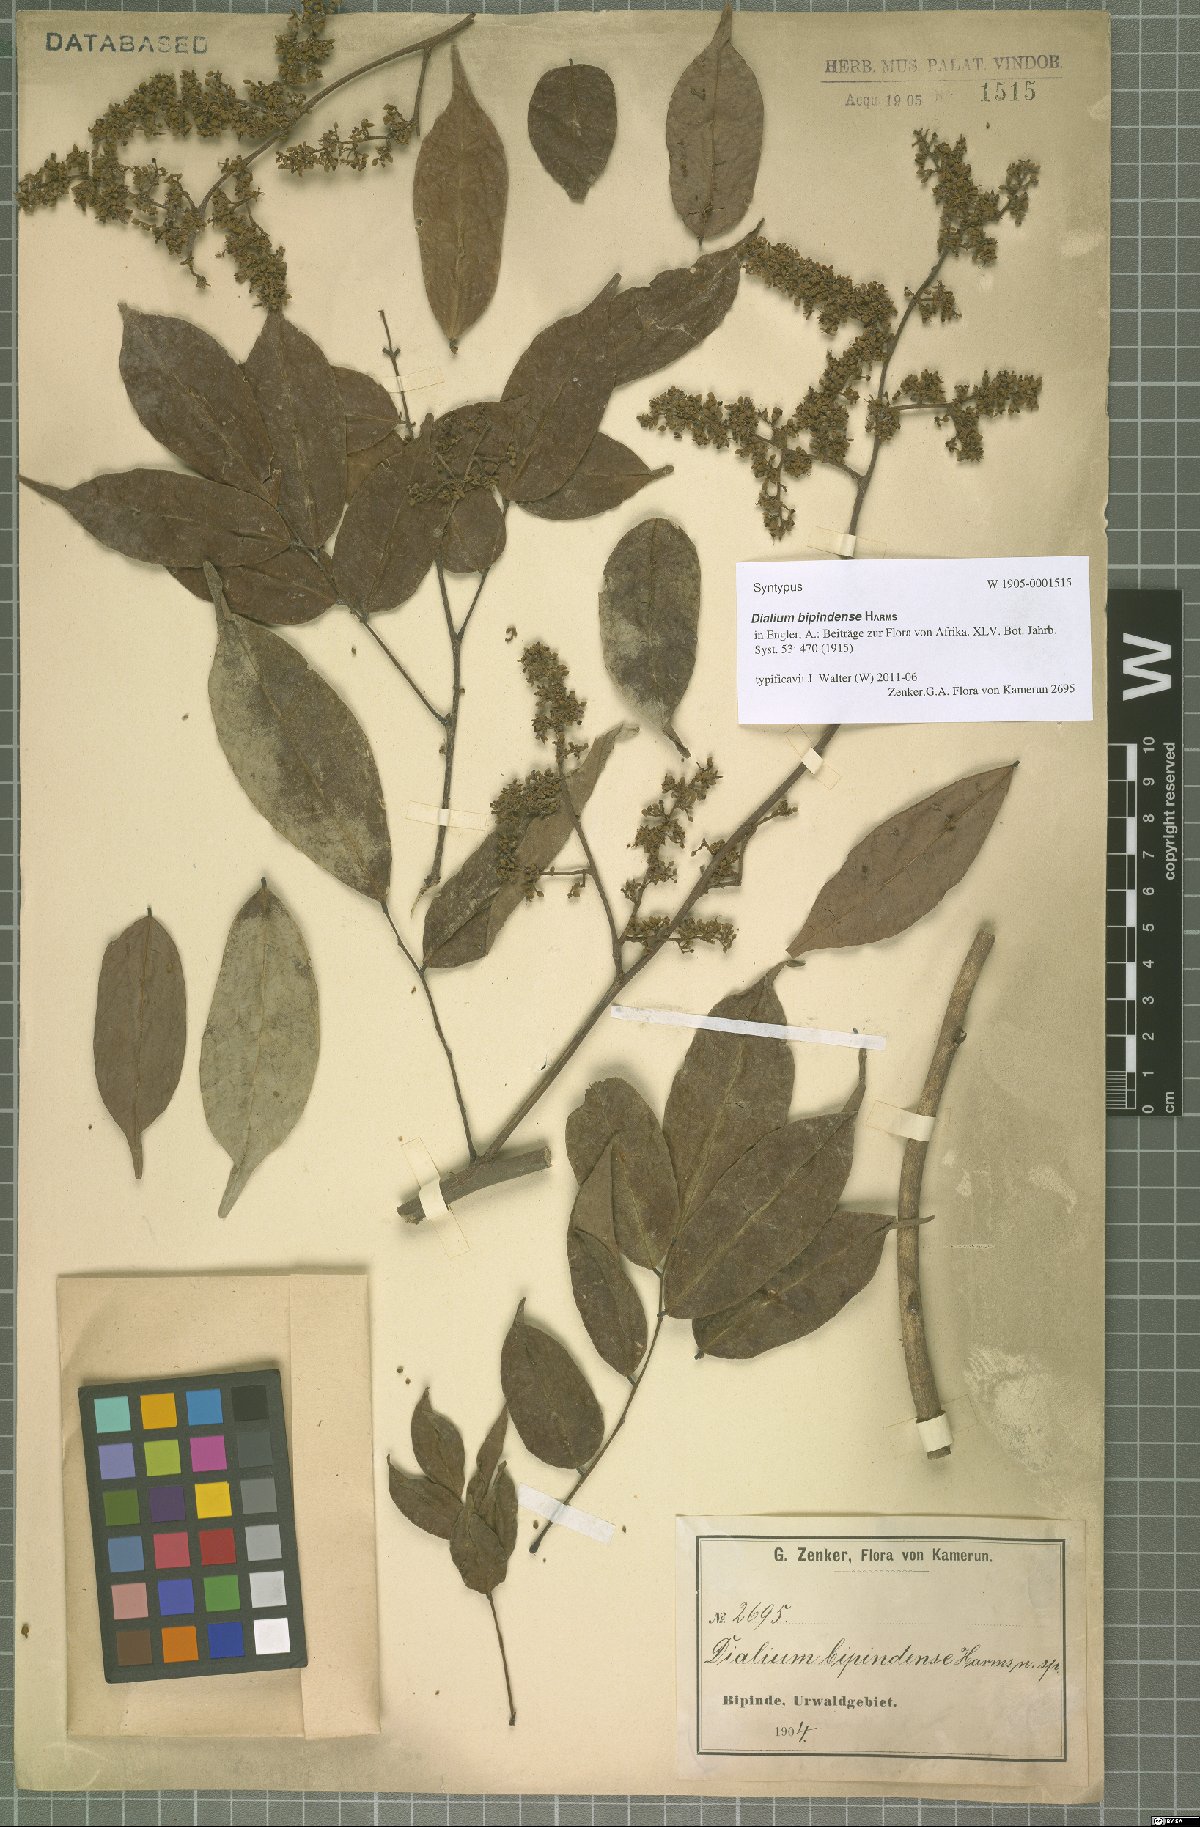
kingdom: Plantae
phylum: Tracheophyta
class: Magnoliopsida
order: Fabales
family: Fabaceae
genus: Dialium
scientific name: Dialium bipindense
